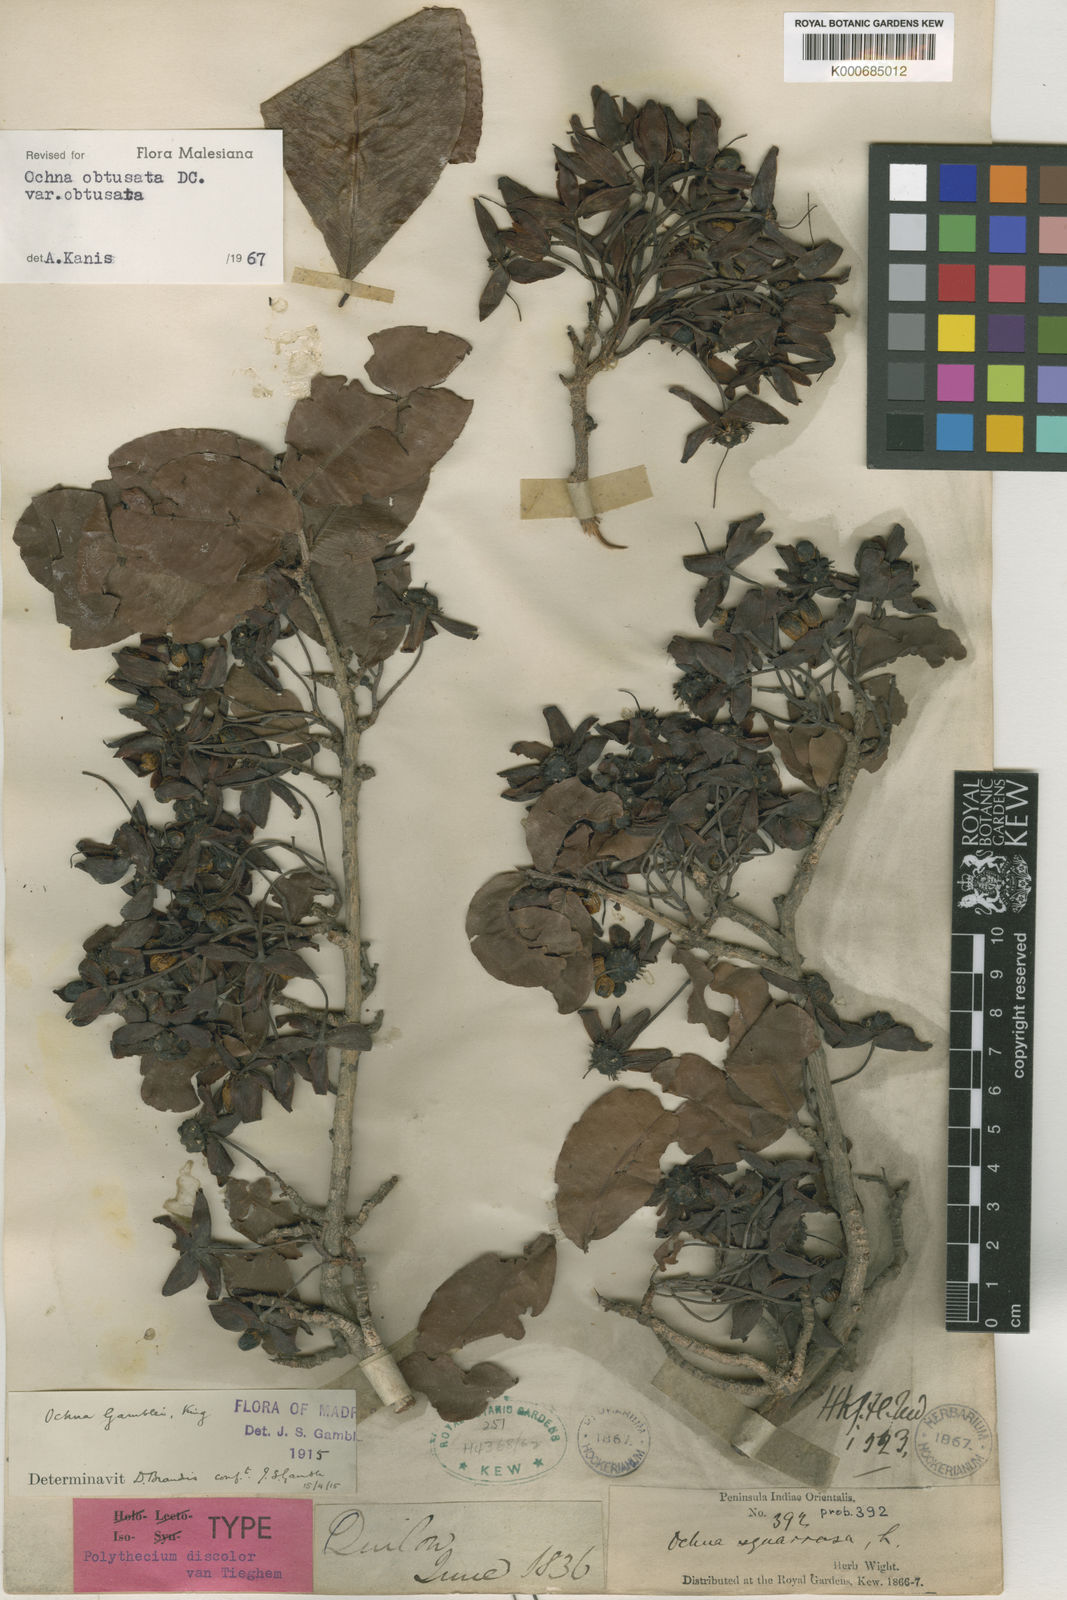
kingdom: Plantae
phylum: Tracheophyta
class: Magnoliopsida
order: Malpighiales
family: Ochnaceae
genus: Ochna
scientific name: Ochna obtusata
